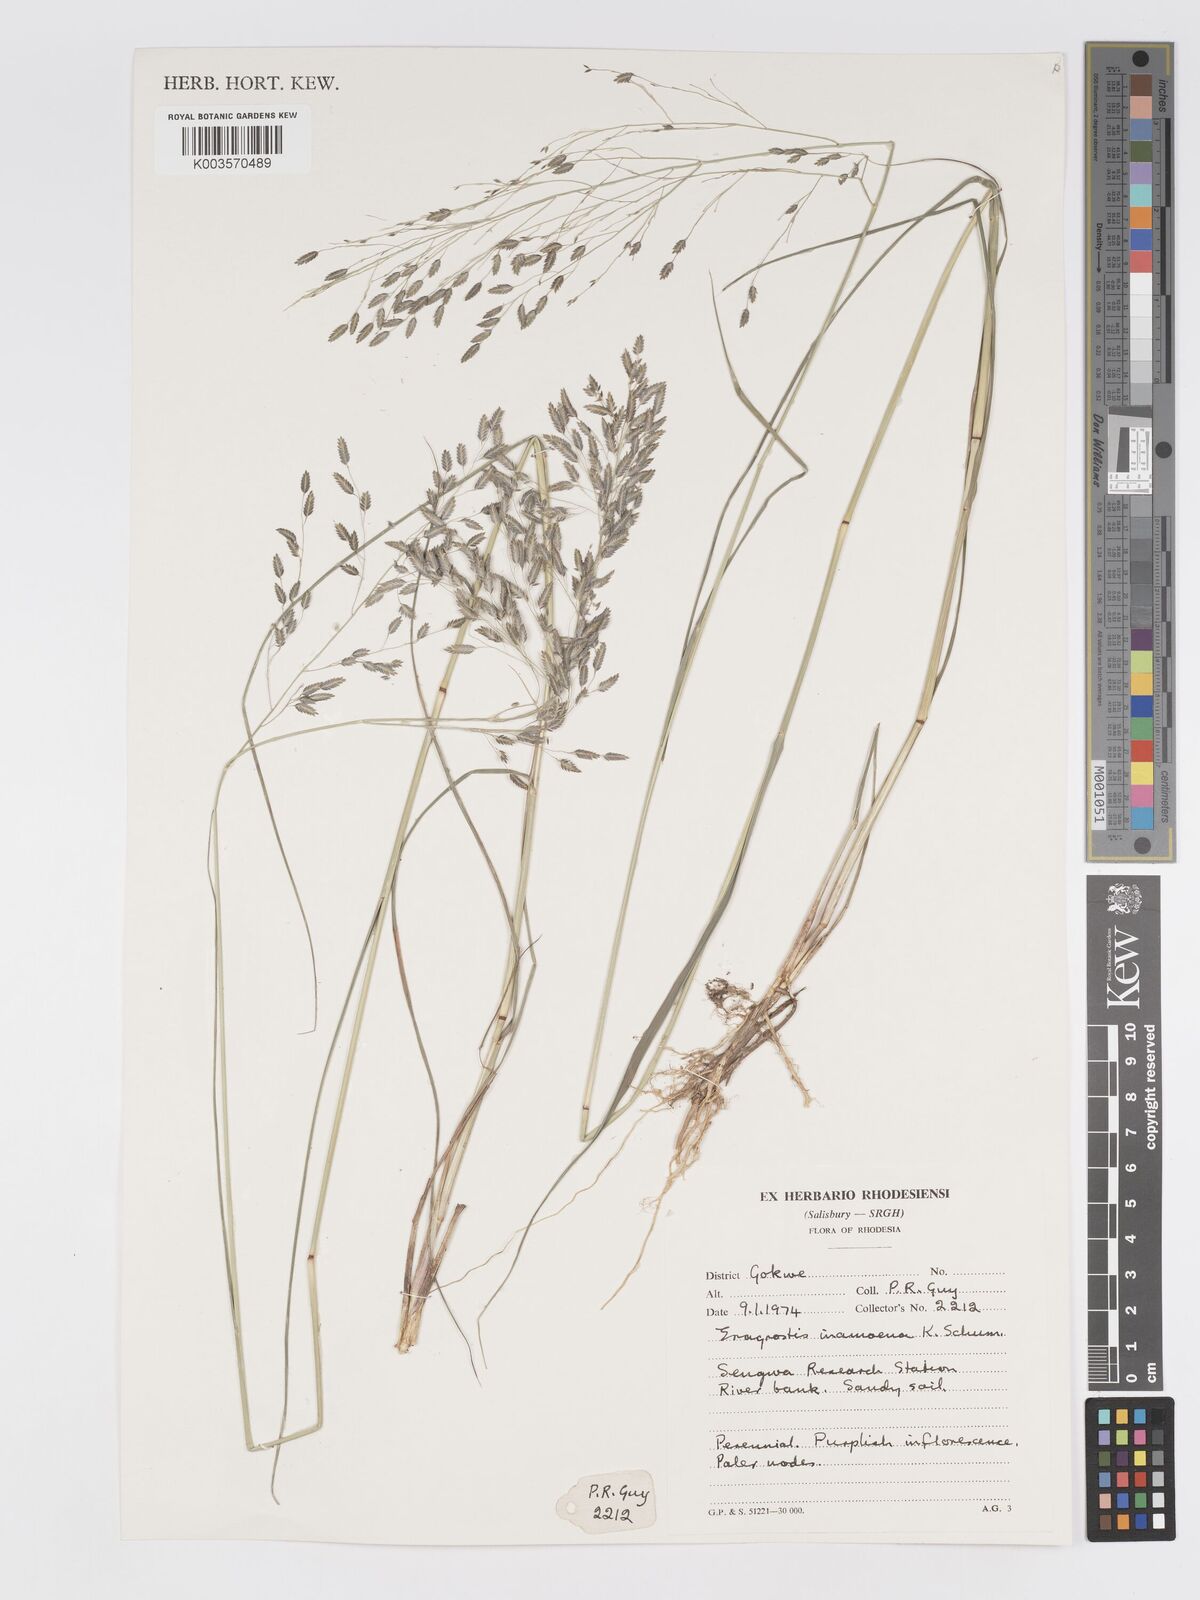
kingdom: Plantae
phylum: Tracheophyta
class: Liliopsida
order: Poales
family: Poaceae
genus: Eragrostis
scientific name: Eragrostis inamoena
